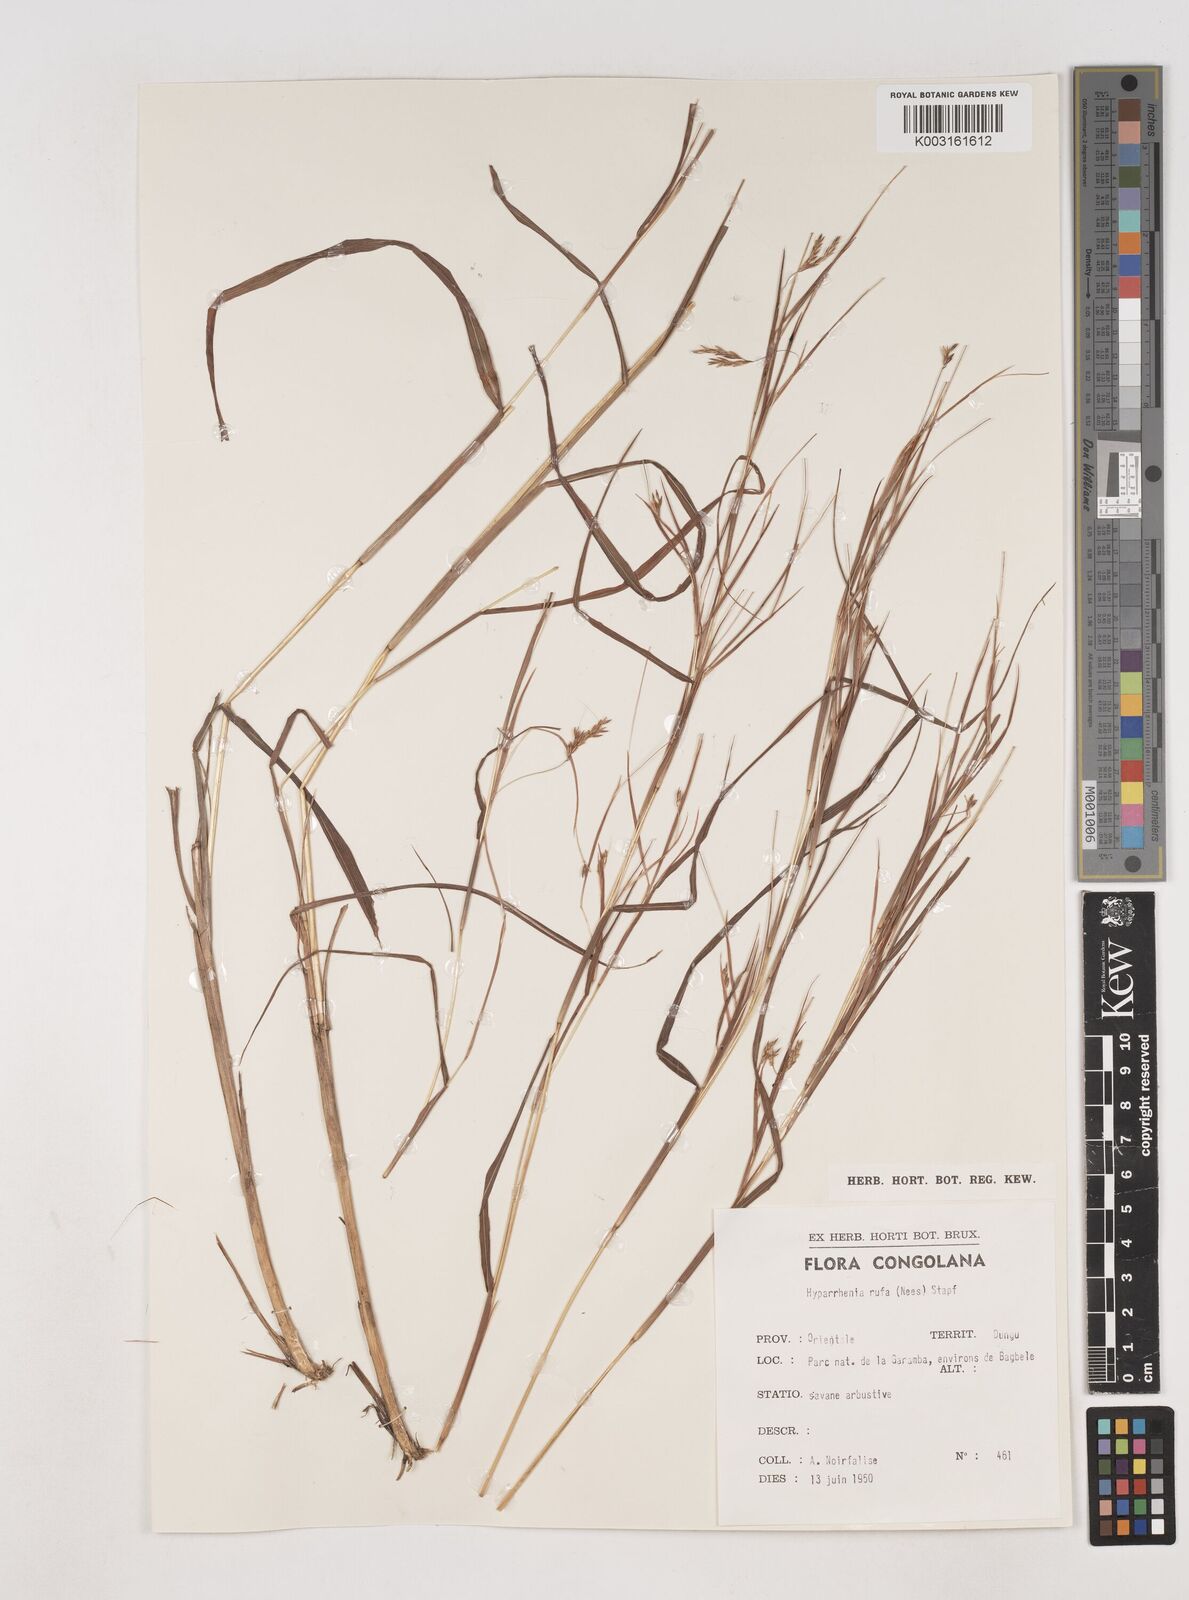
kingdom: Plantae
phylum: Tracheophyta
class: Liliopsida
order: Poales
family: Poaceae
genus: Hyparrhenia
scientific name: Hyparrhenia rufa
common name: Jaraguagrass
